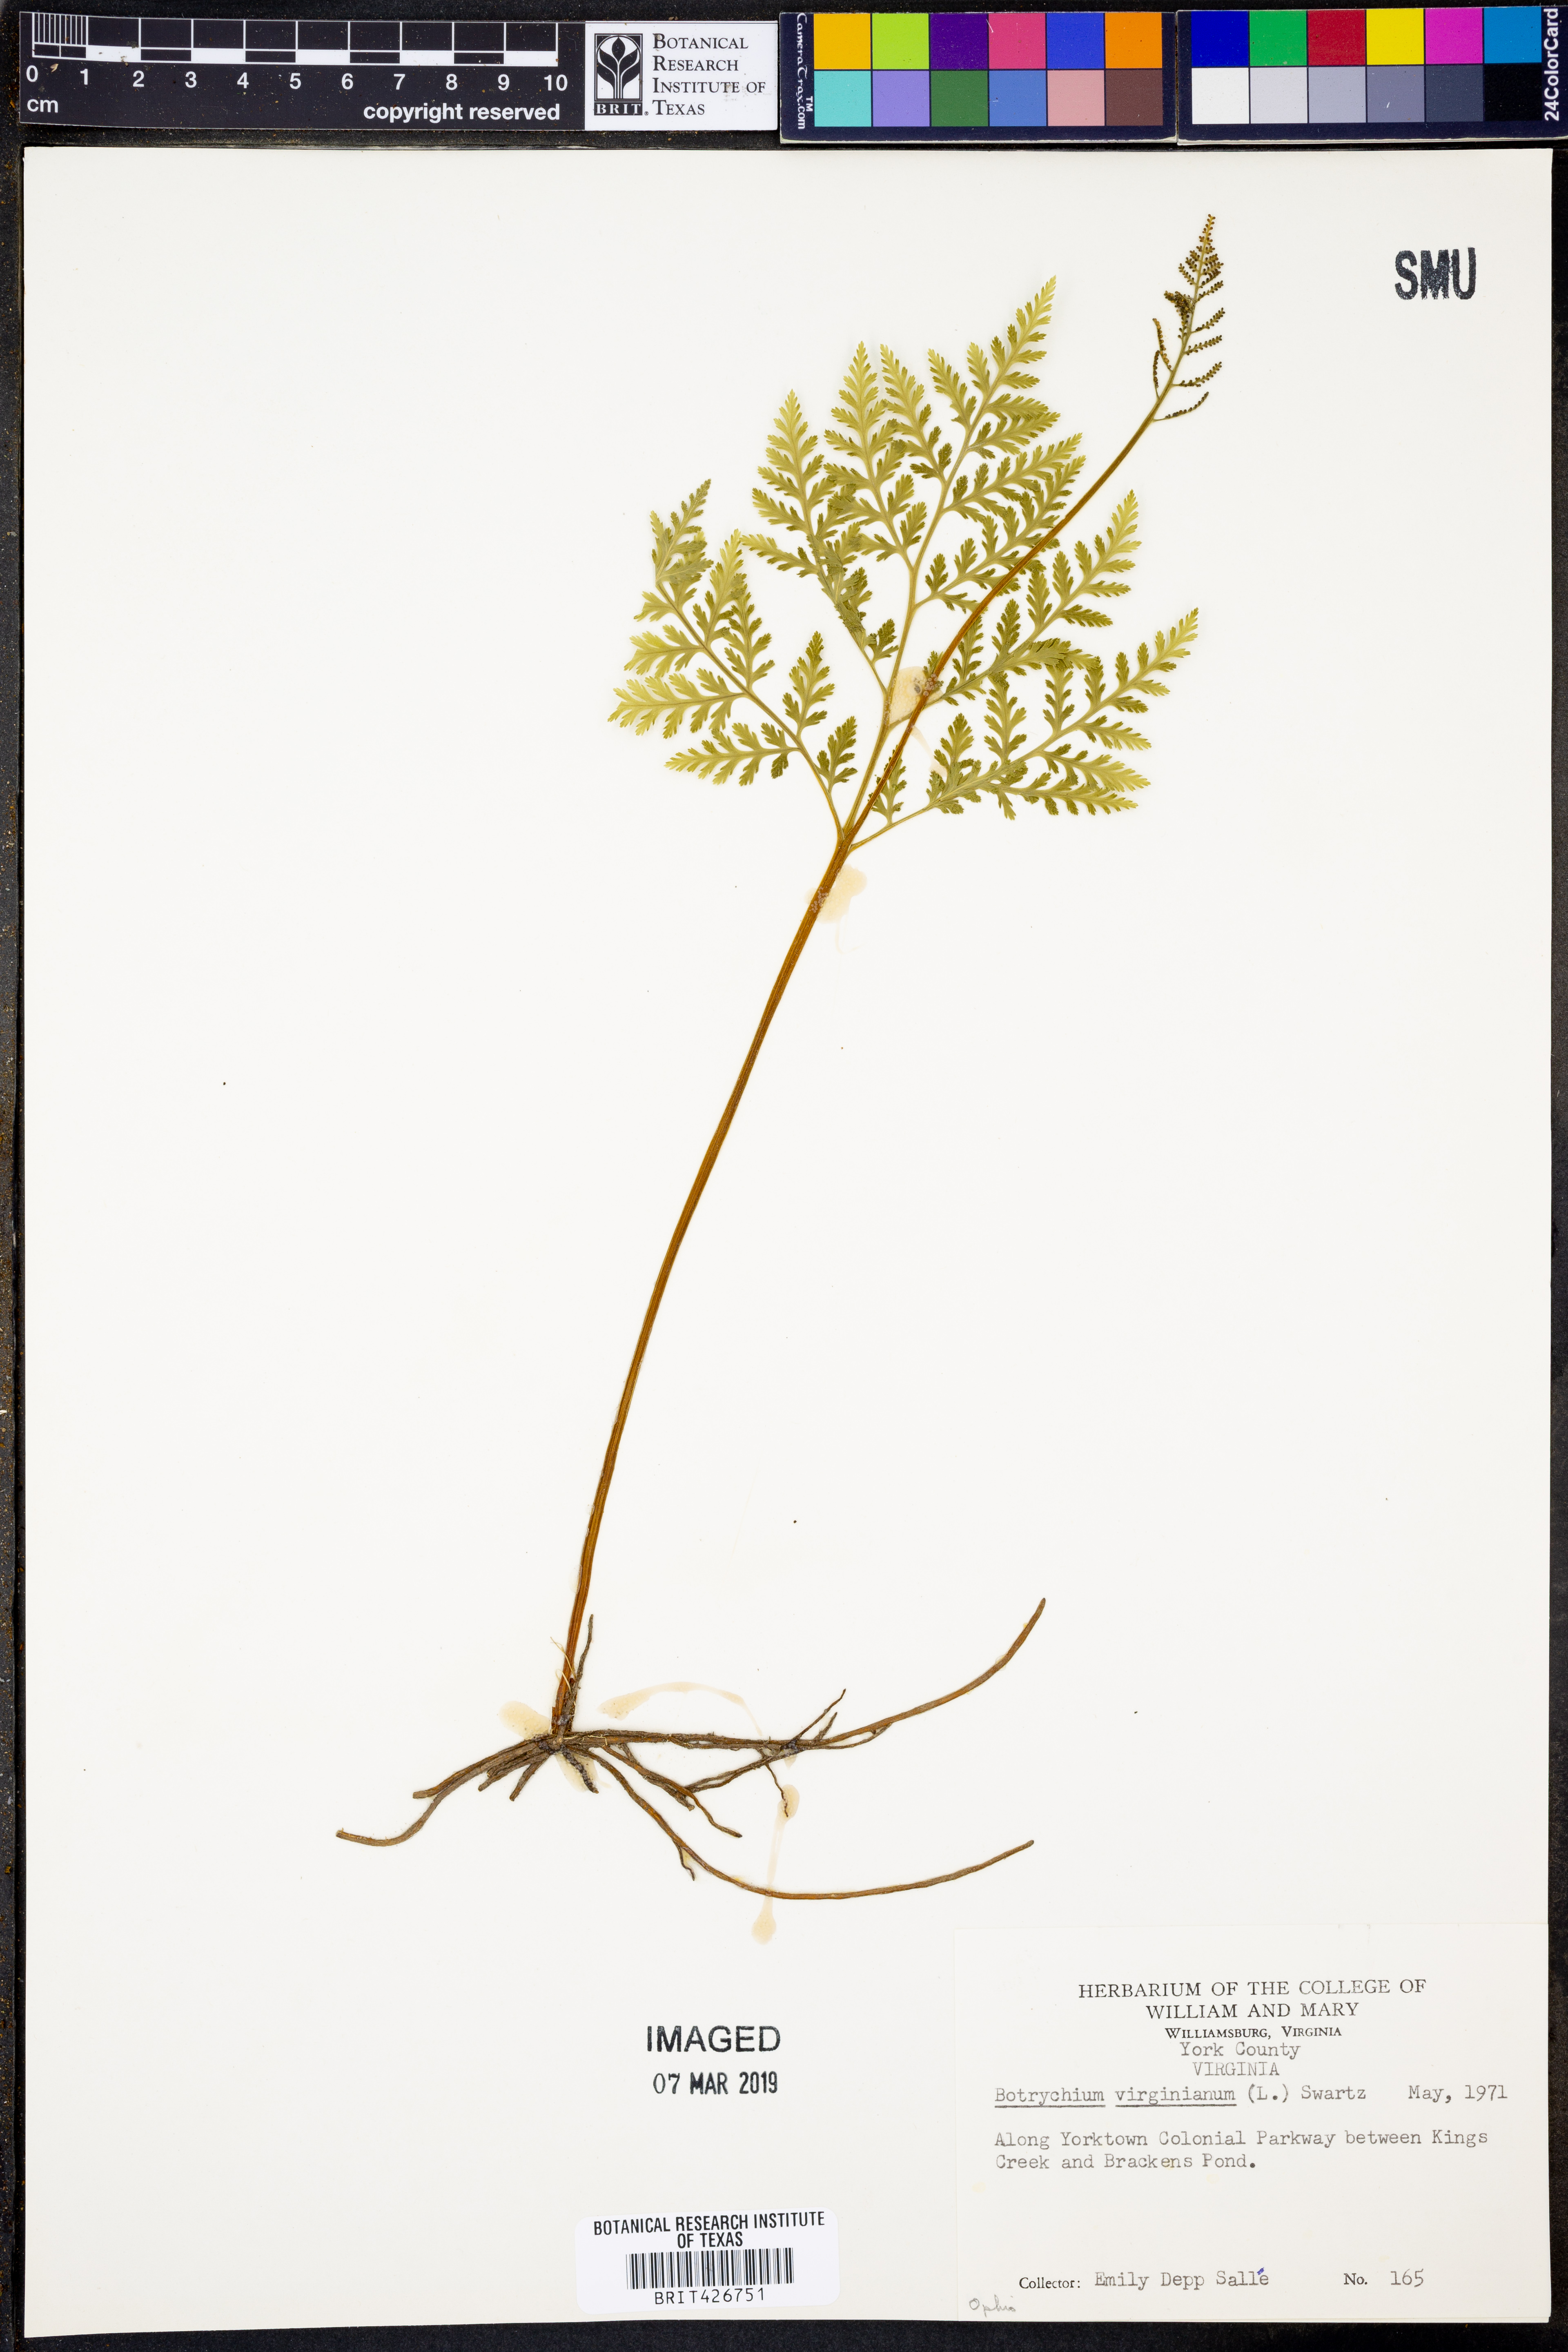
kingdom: Plantae
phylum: Tracheophyta
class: Polypodiopsida
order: Ophioglossales
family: Ophioglossaceae
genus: Botrypus
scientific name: Botrypus virginianus
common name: Common grapefern
